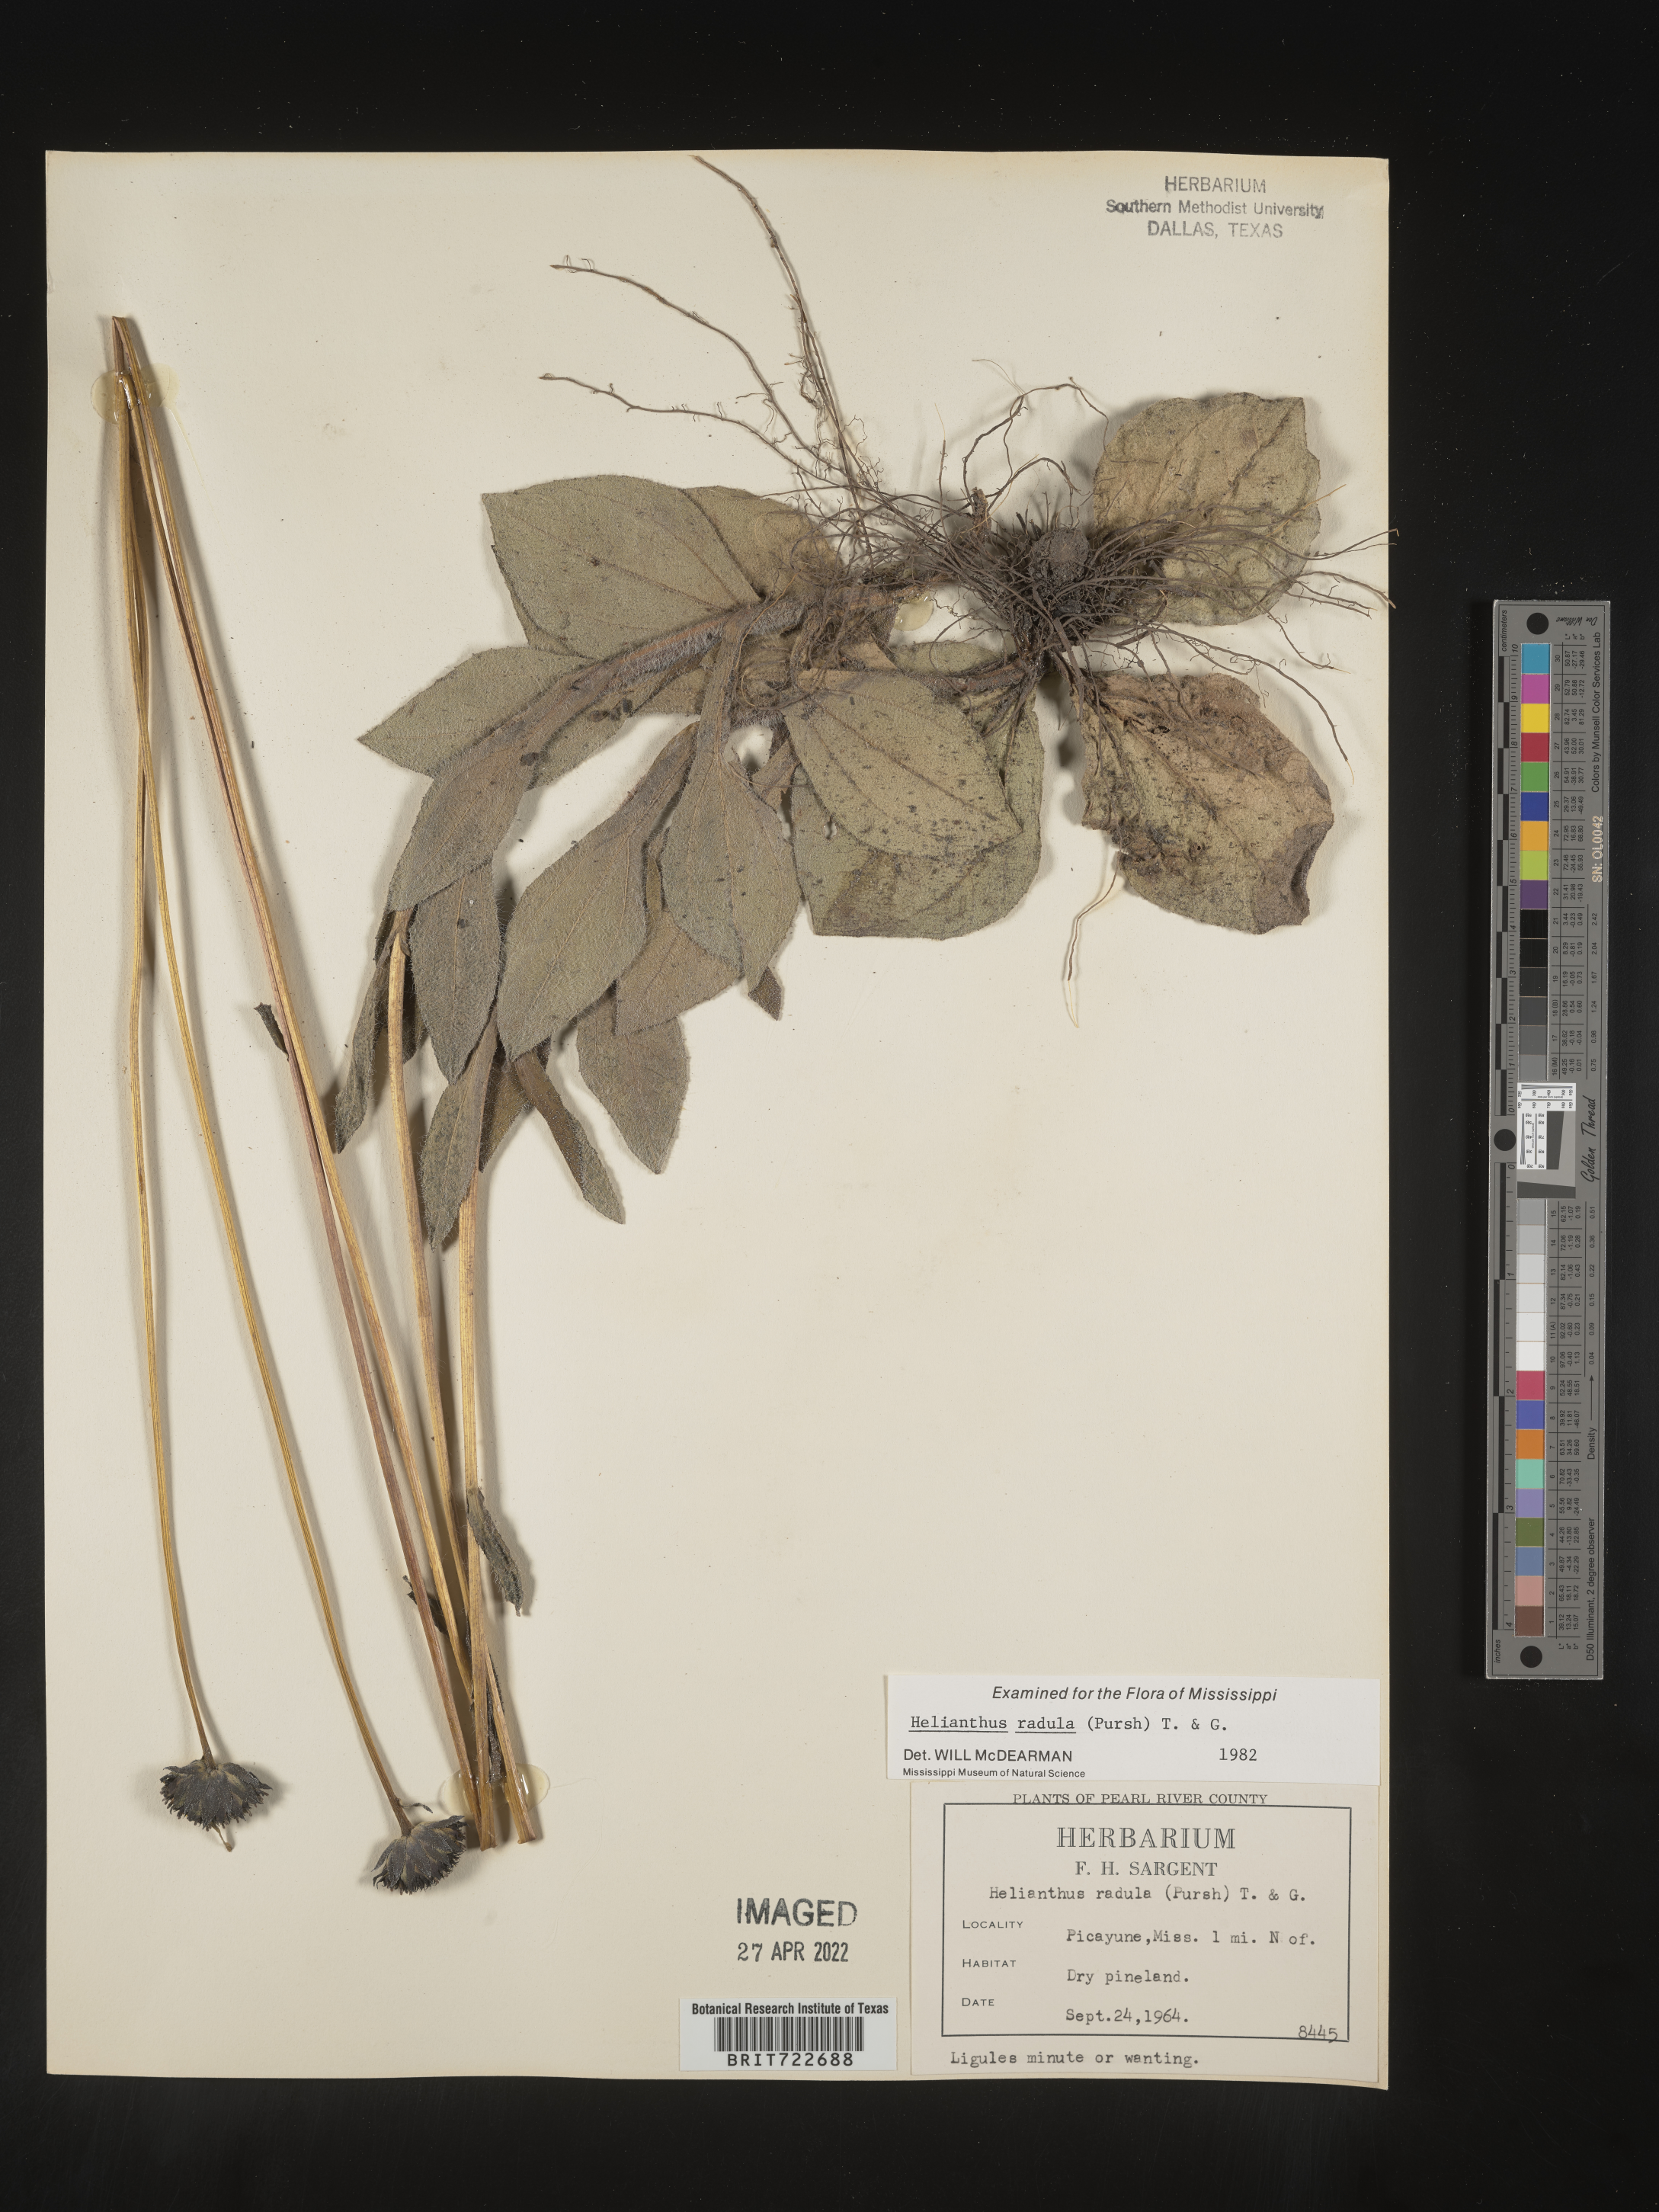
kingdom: Plantae
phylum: Tracheophyta
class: Magnoliopsida
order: Asterales
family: Asteraceae
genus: Helianthus
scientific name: Helianthus radula
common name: Pineland sunflower
